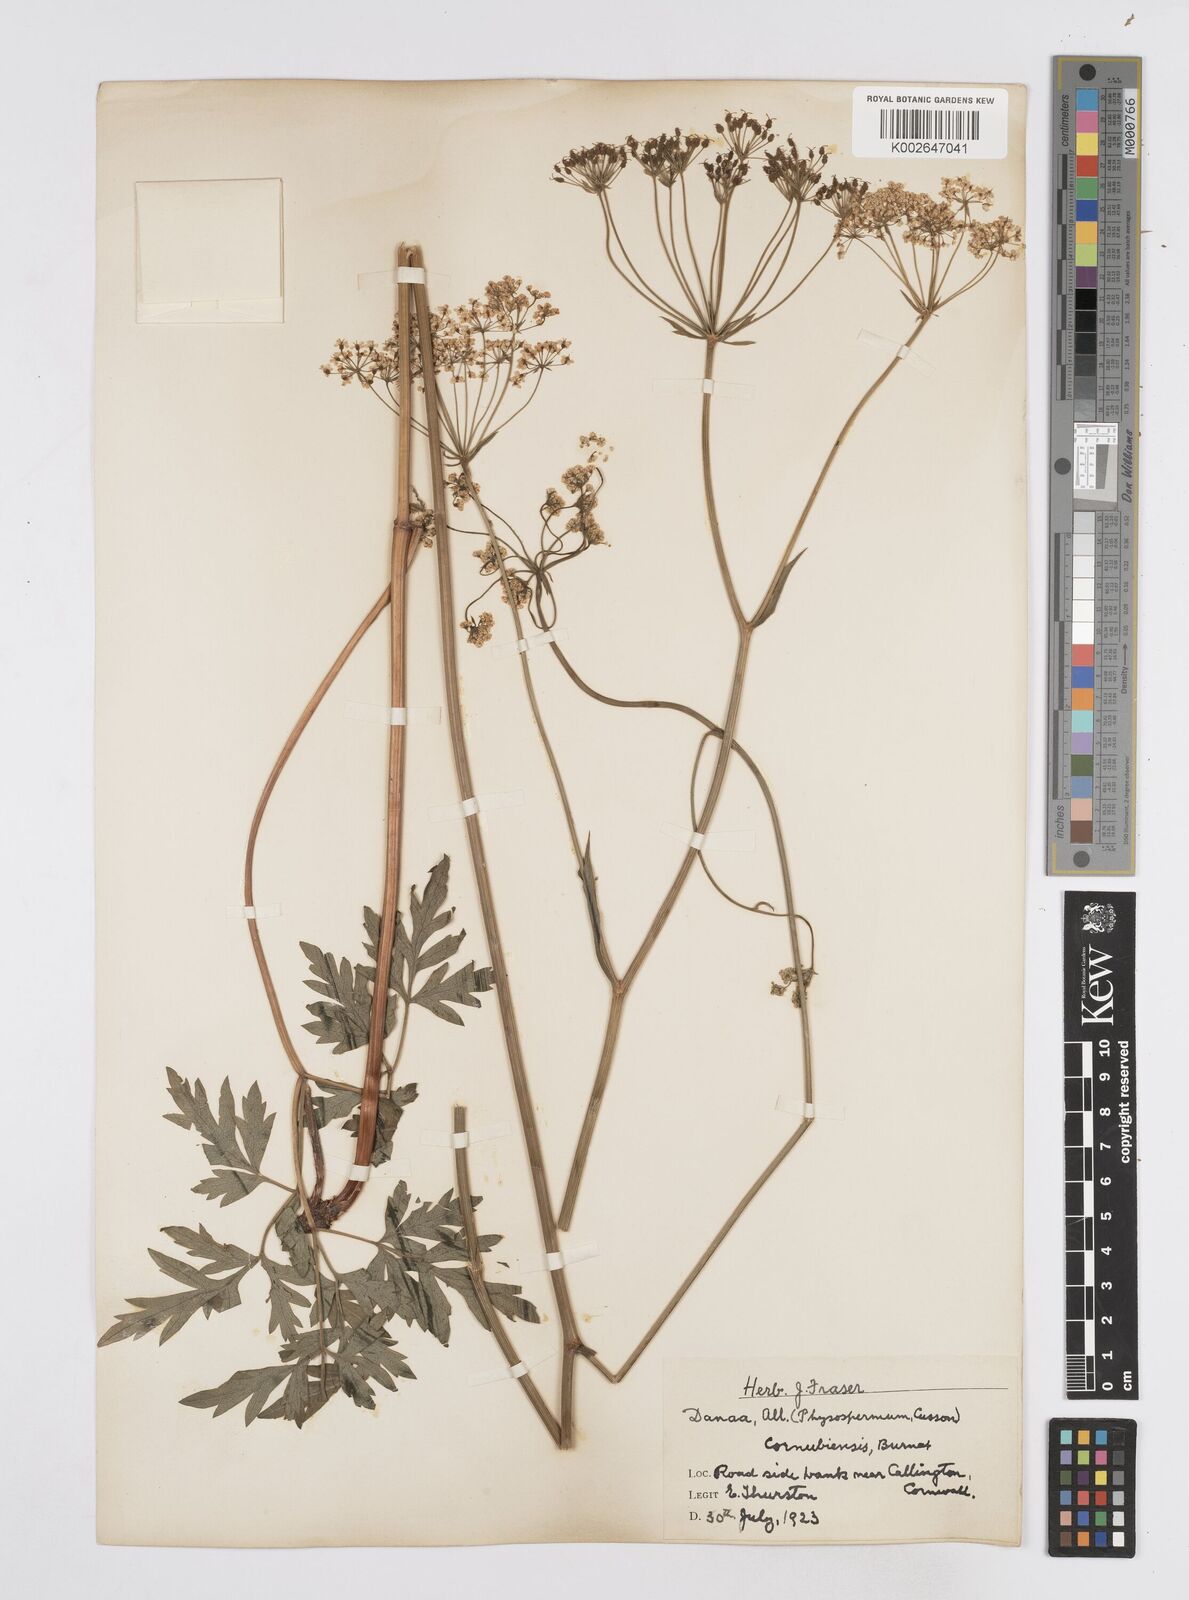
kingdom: Plantae
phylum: Tracheophyta
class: Magnoliopsida
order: Apiales
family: Apiaceae
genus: Physospermum
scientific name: Physospermum cornubiense
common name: Bladderseed
